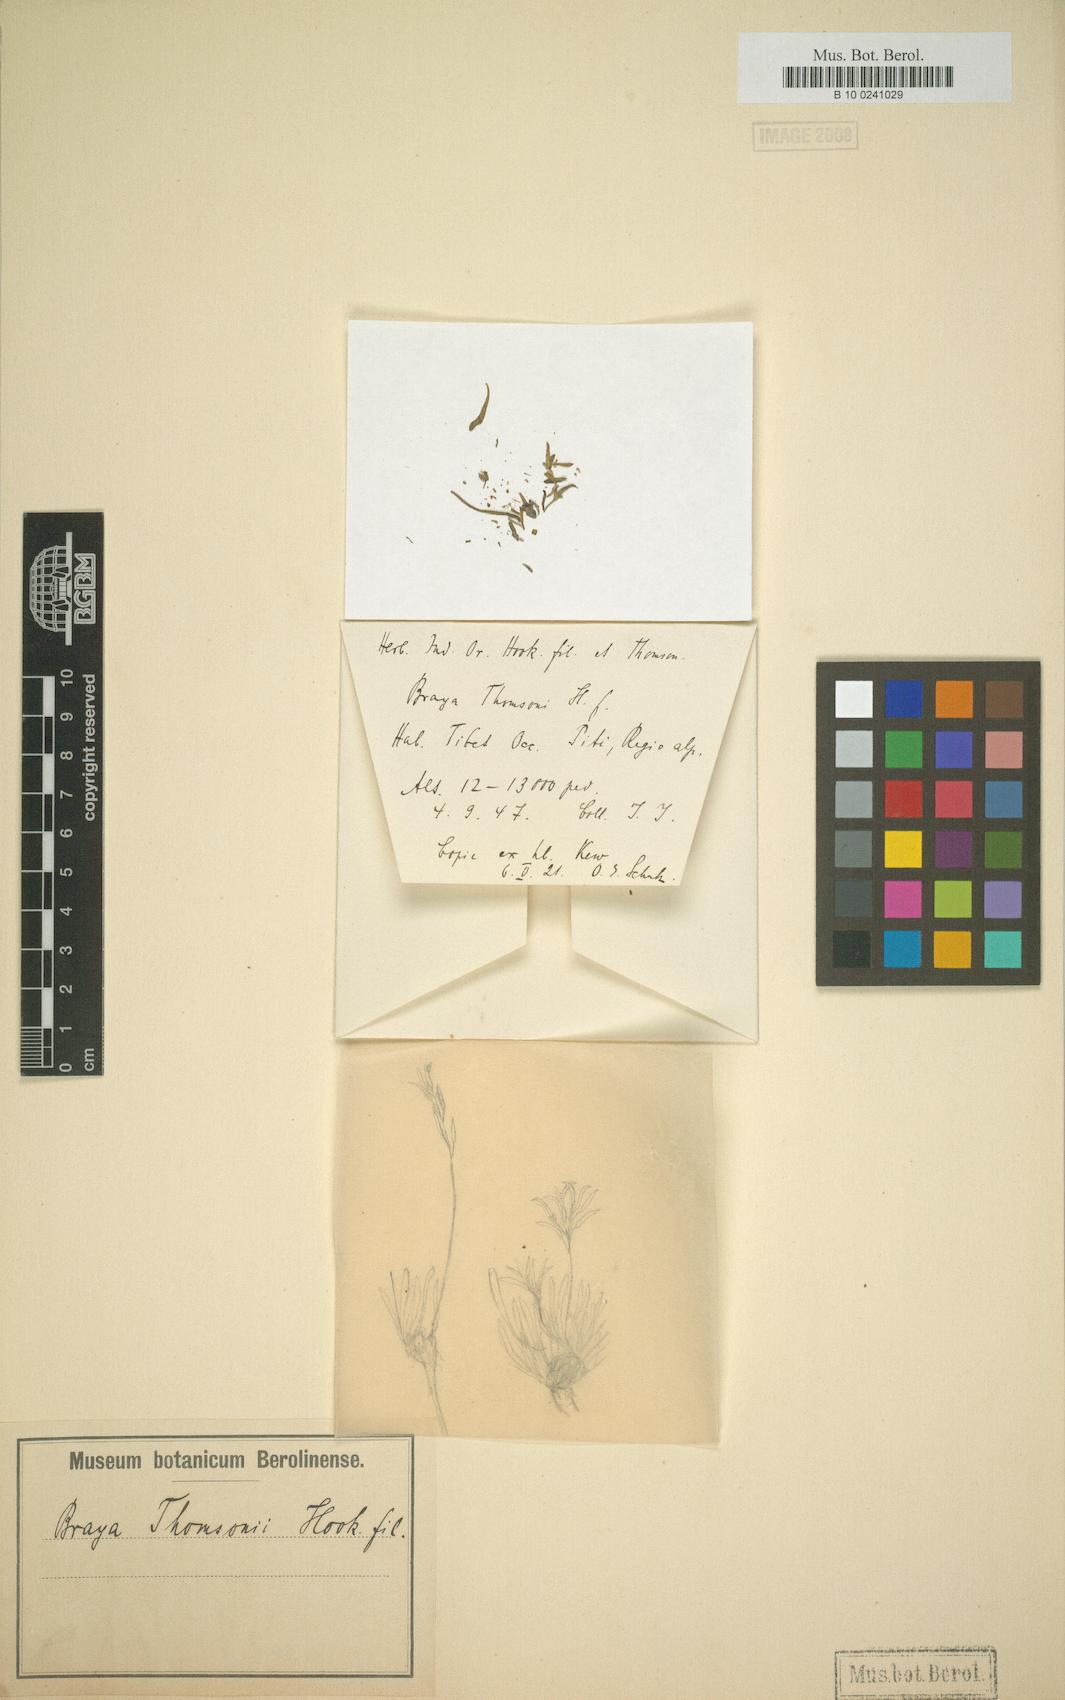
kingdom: Plantae
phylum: Tracheophyta
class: Magnoliopsida
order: Brassicales
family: Brassicaceae
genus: Braya
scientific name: Braya thomsonii
